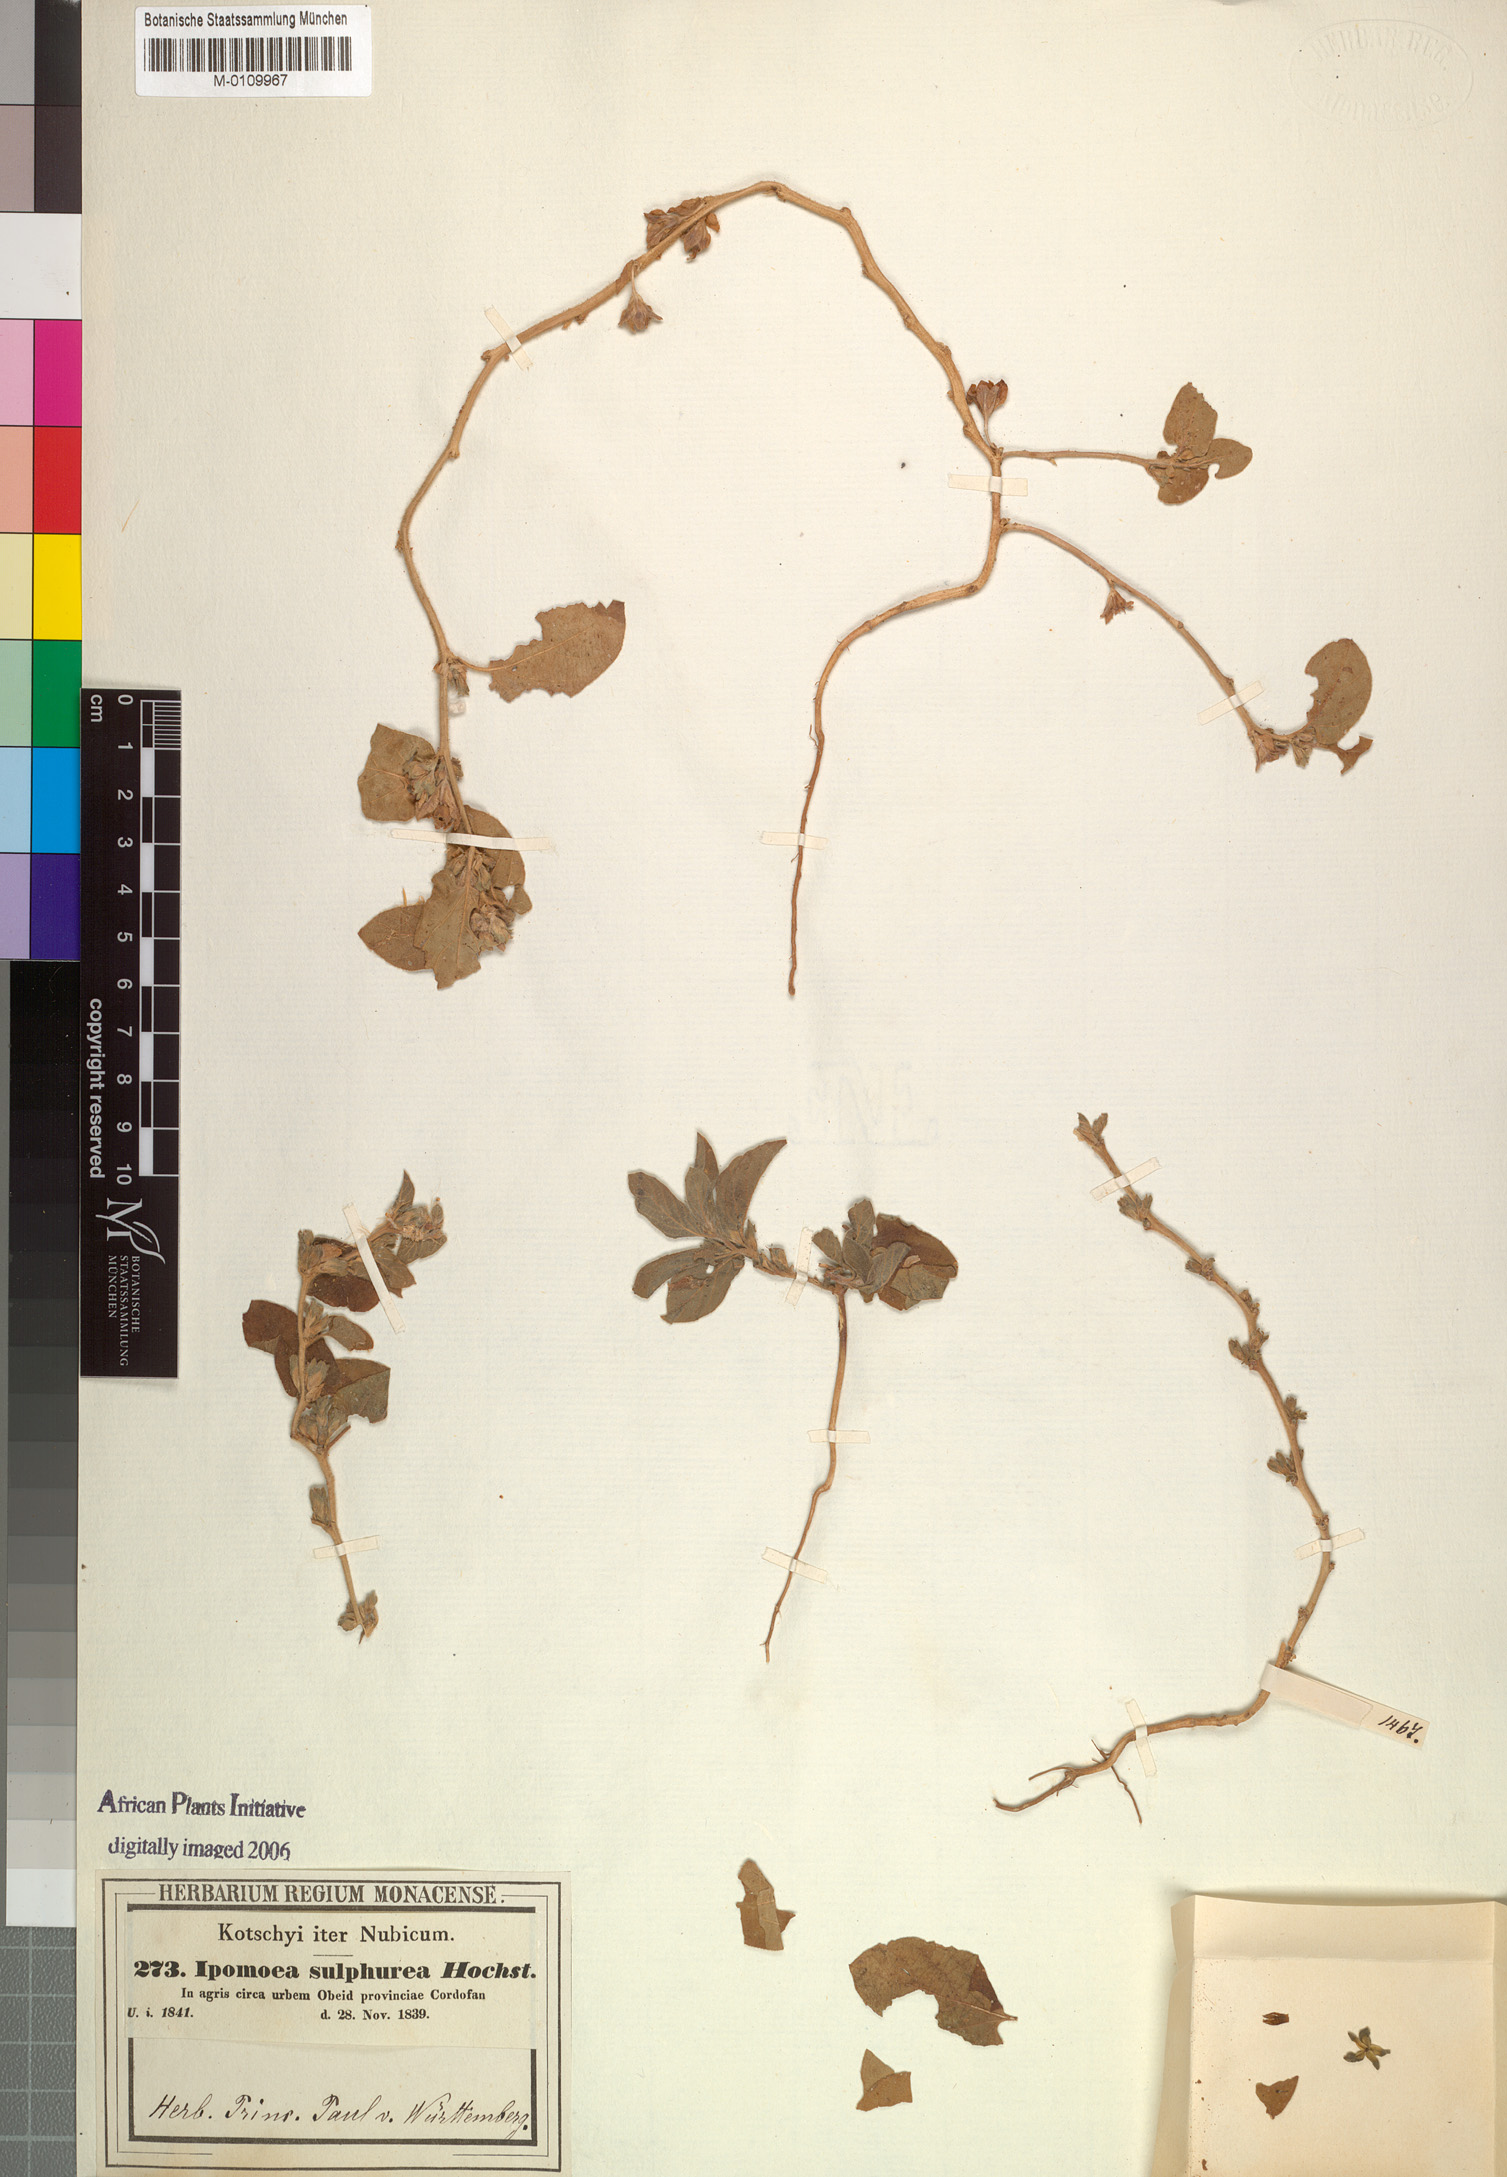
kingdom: Plantae
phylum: Tracheophyta
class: Magnoliopsida
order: Solanales
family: Convolvulaceae
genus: Ipomoea
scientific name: Ipomoea vagans
